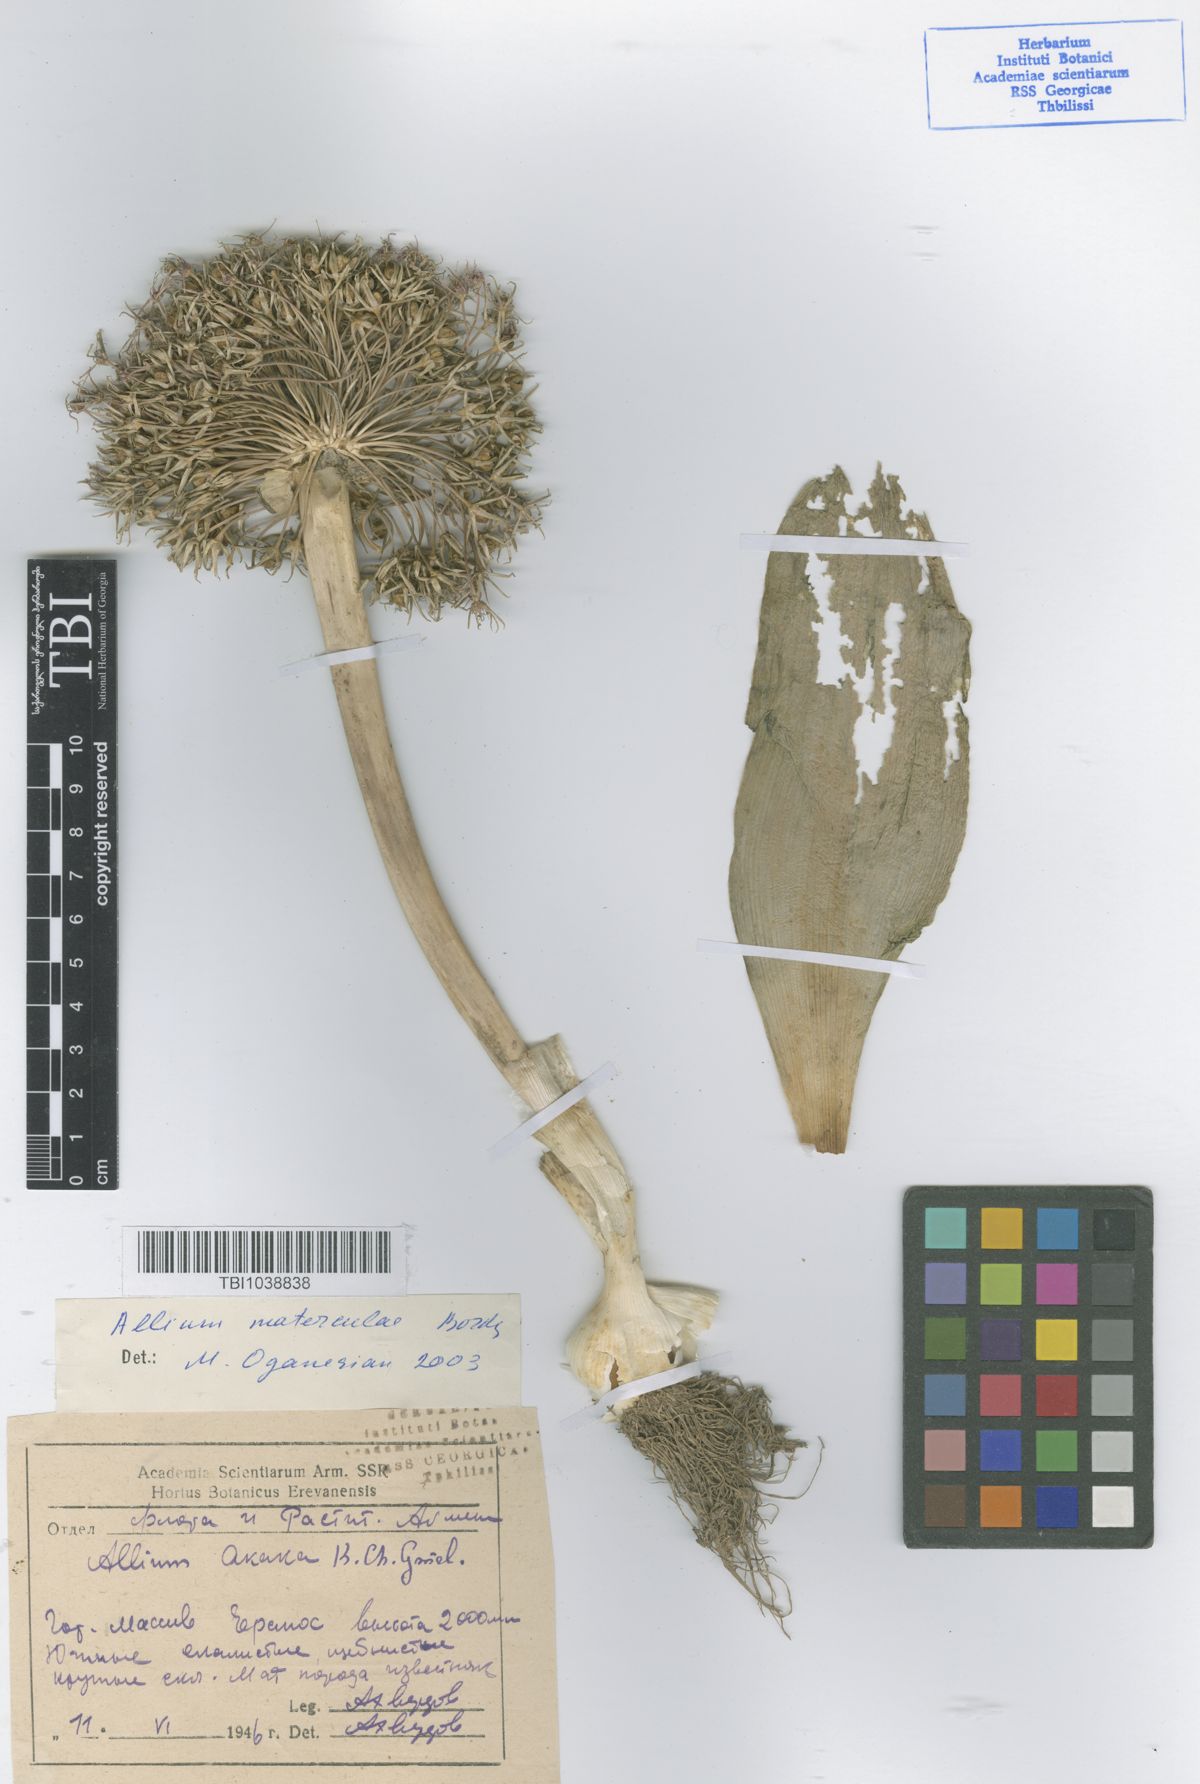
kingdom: Plantae
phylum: Tracheophyta
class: Liliopsida
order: Asparagales
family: Amaryllidaceae
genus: Allium
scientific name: Allium materculae
